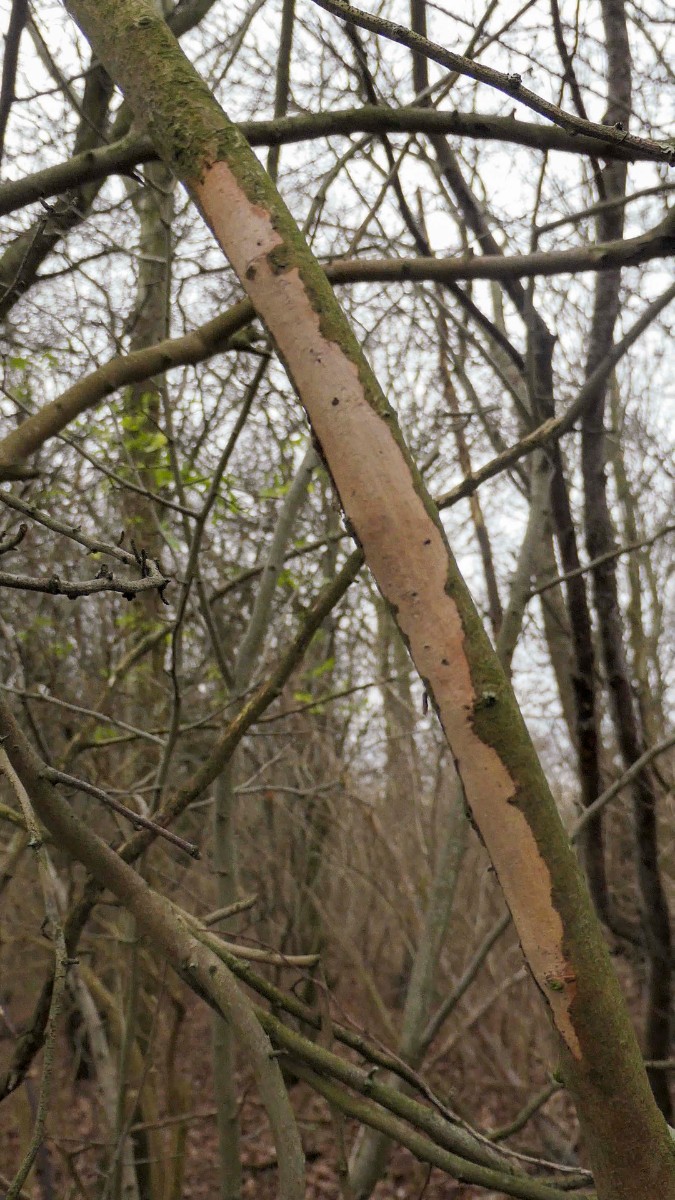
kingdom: Fungi
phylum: Basidiomycota
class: Agaricomycetes
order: Corticiales
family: Vuilleminiaceae
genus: Vuilleminia
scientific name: Vuilleminia cystidiata
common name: tjørne-barksprænger
